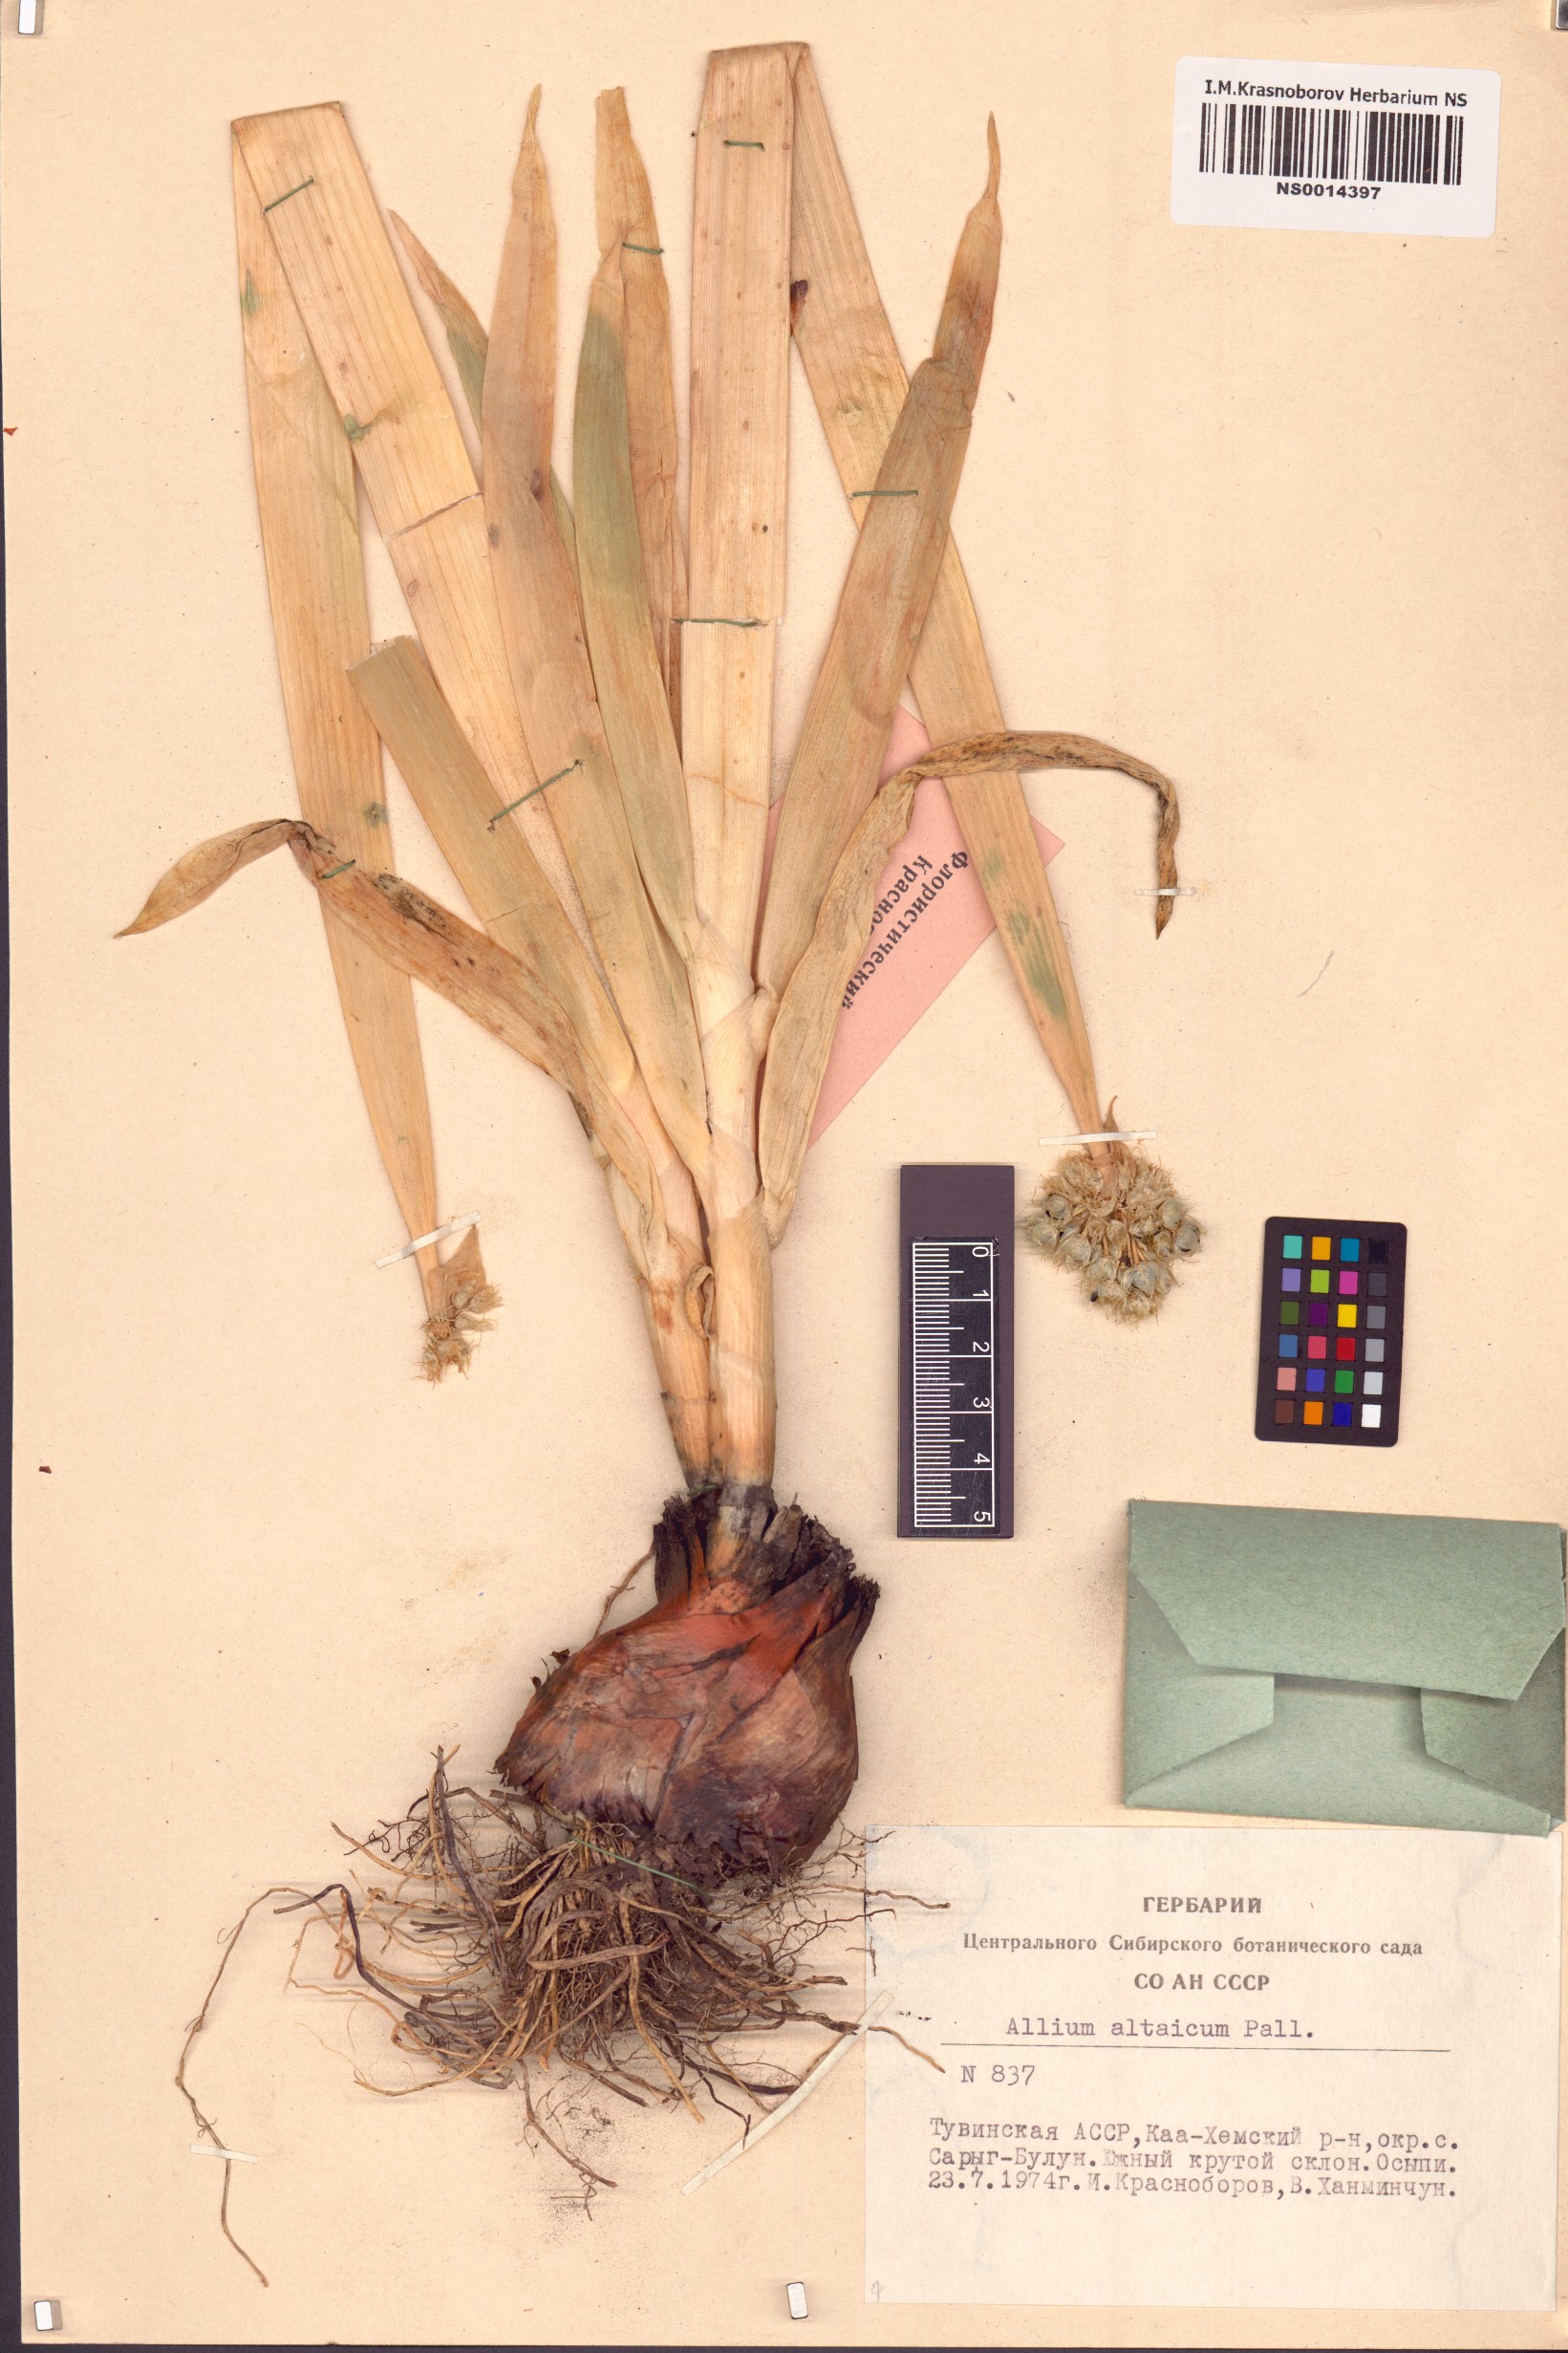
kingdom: Plantae
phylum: Tracheophyta
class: Liliopsida
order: Asparagales
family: Amaryllidaceae
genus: Allium
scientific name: Allium altaicum
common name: Altai onion
